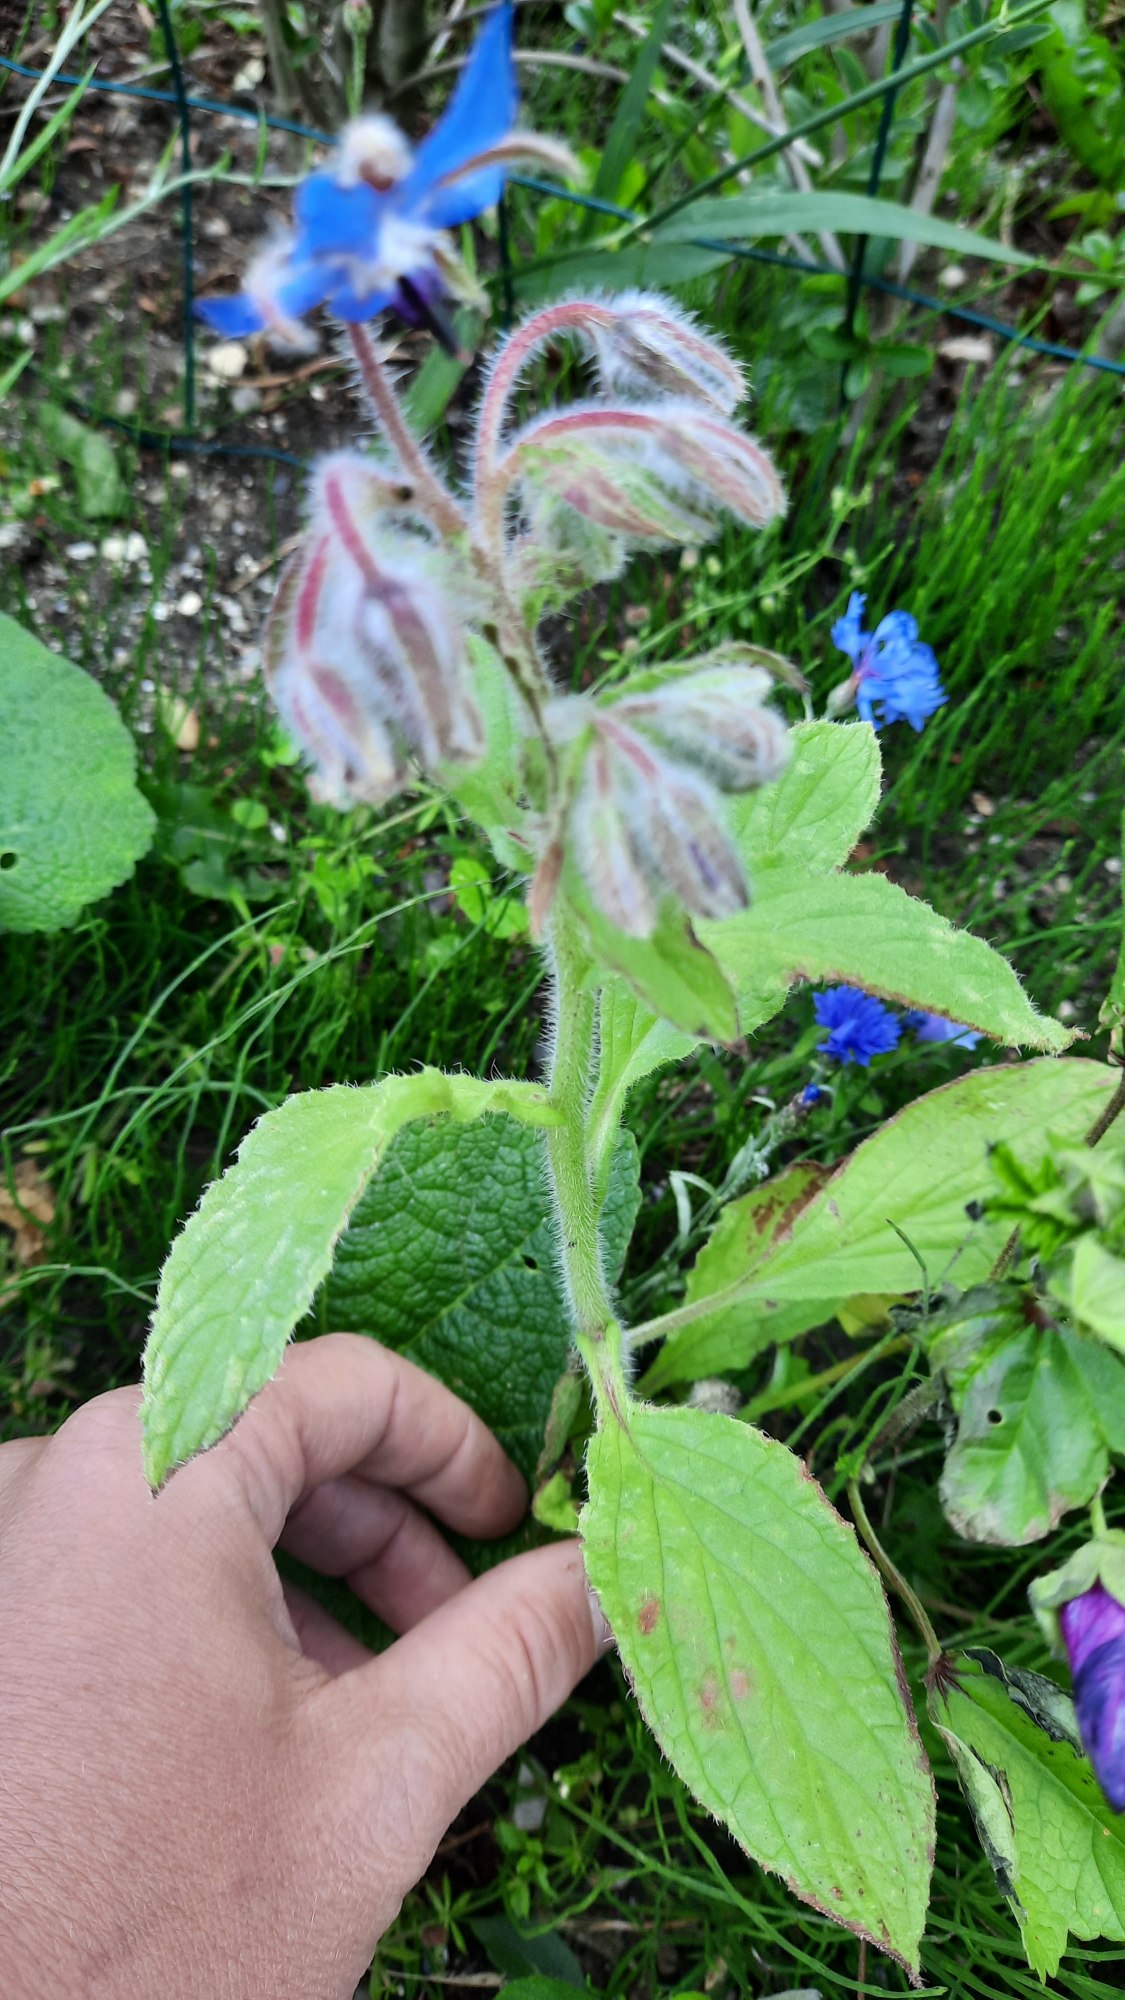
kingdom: Plantae
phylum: Tracheophyta
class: Magnoliopsida
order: Boraginales
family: Boraginaceae
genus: Borago
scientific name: Borago officinalis
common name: Hjulkrone
